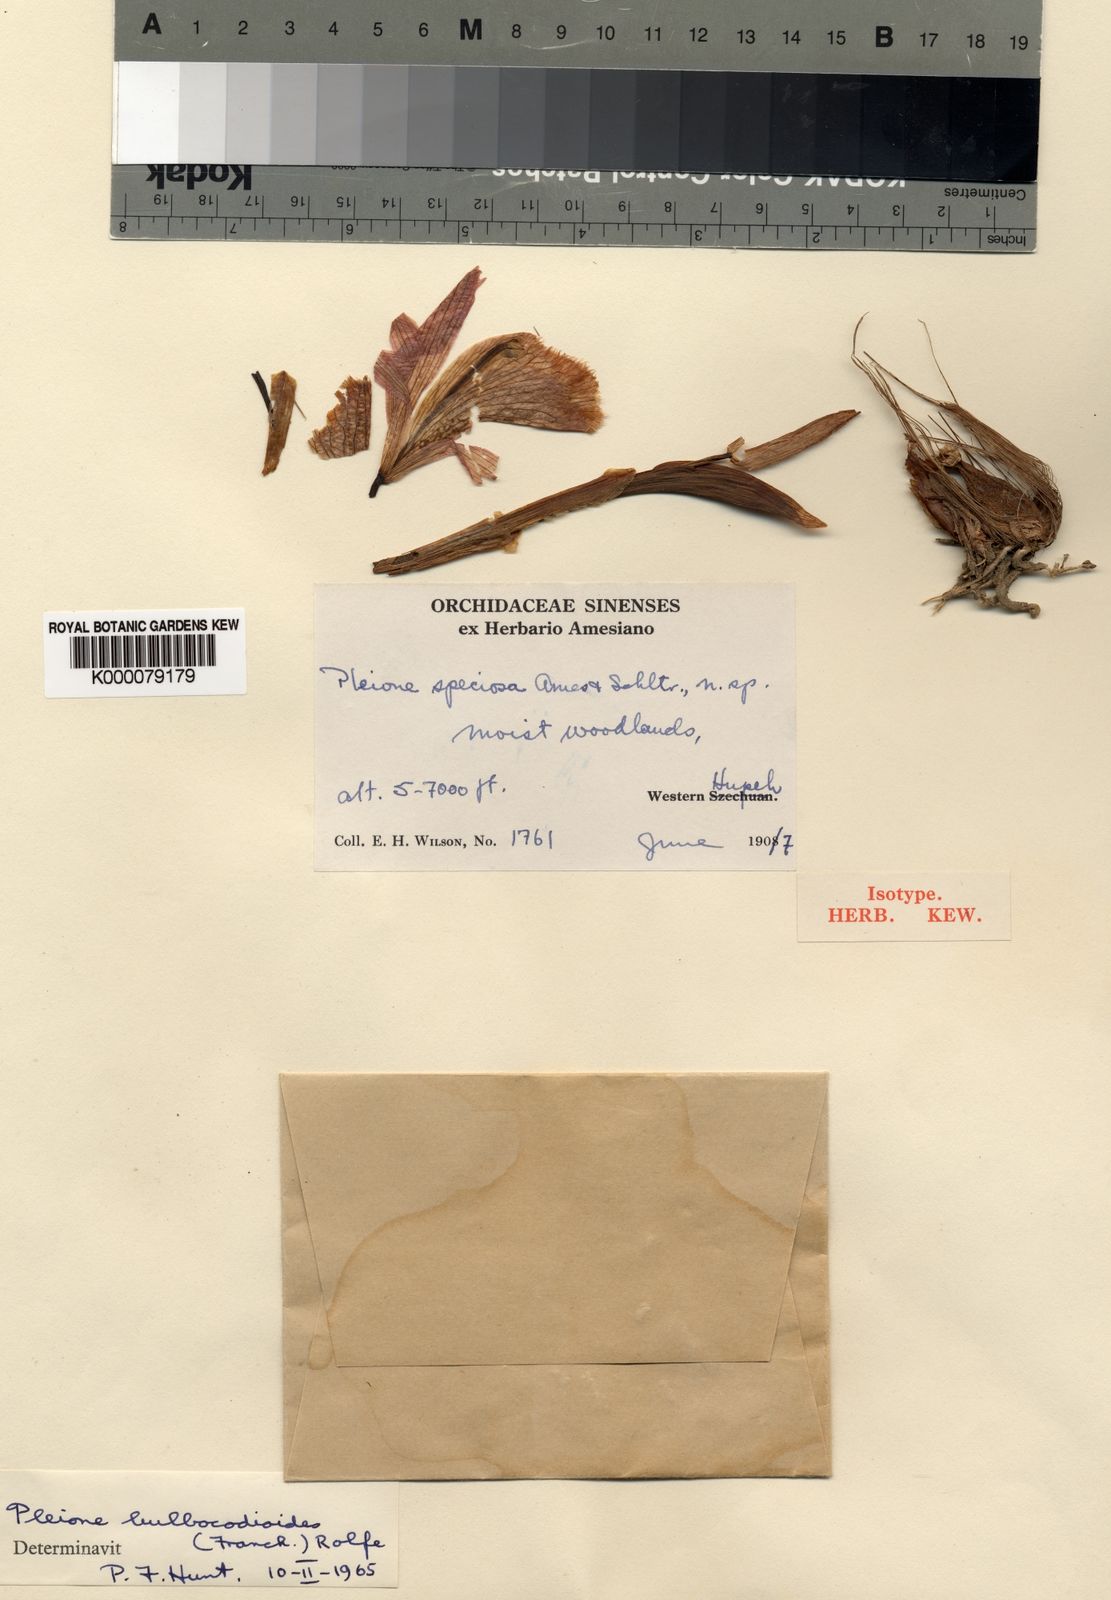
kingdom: Plantae
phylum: Tracheophyta
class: Liliopsida
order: Asparagales
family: Orchidaceae
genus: Pleione
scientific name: Pleione pleionoides
